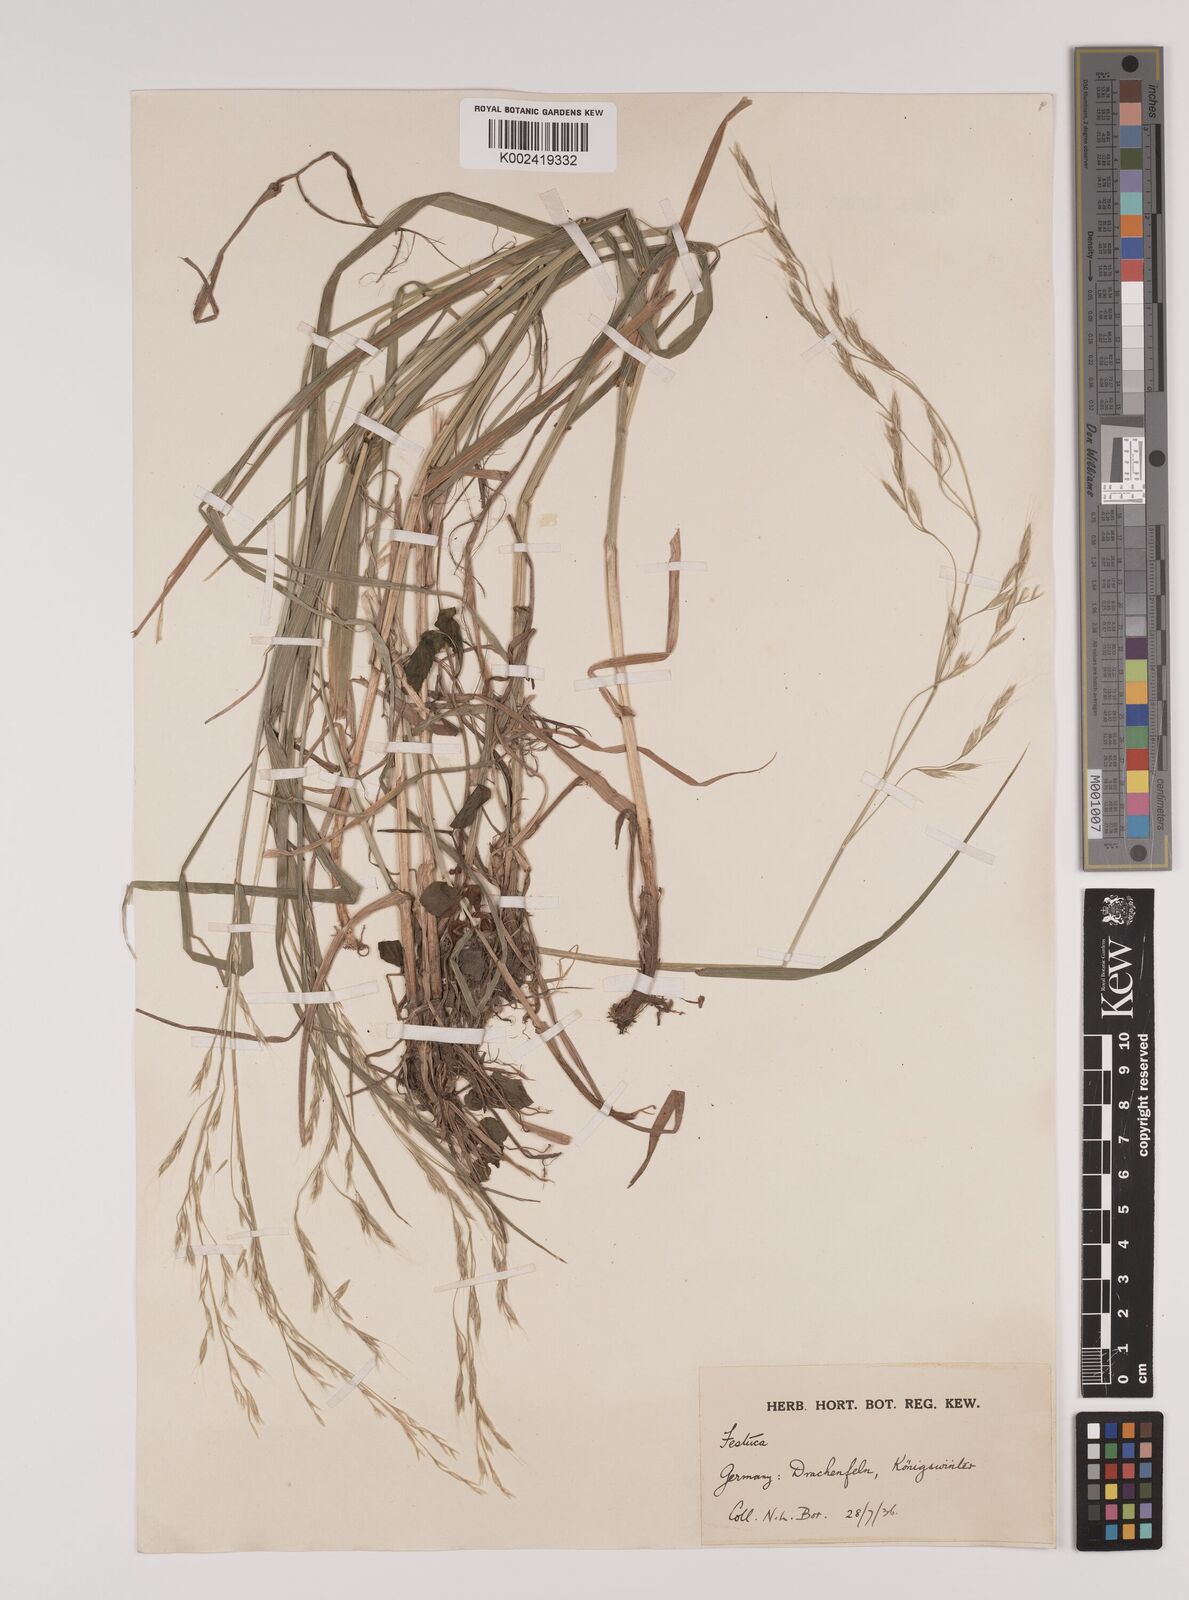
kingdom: Plantae
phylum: Tracheophyta
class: Liliopsida
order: Poales
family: Poaceae
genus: Lolium
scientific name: Lolium giganteum
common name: Giant fescue
